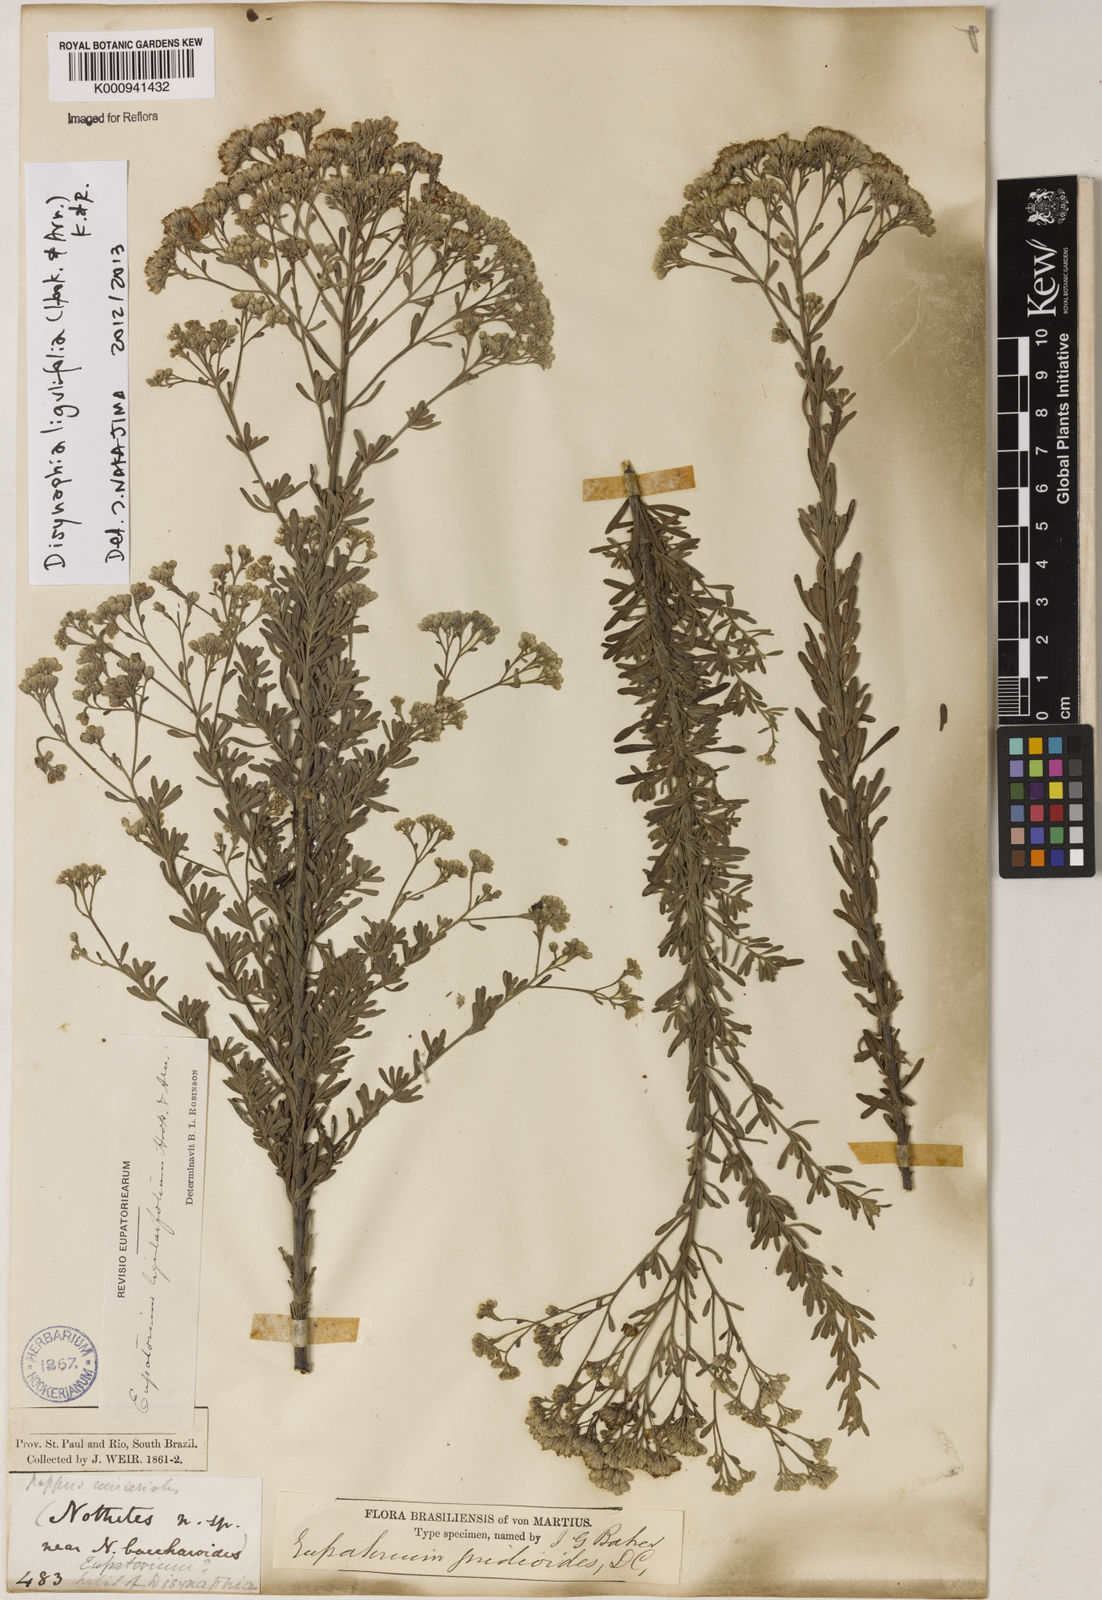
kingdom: Plantae
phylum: Tracheophyta
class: Magnoliopsida
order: Asterales
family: Asteraceae
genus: Disynaphia
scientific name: Disynaphia ligulifolia
